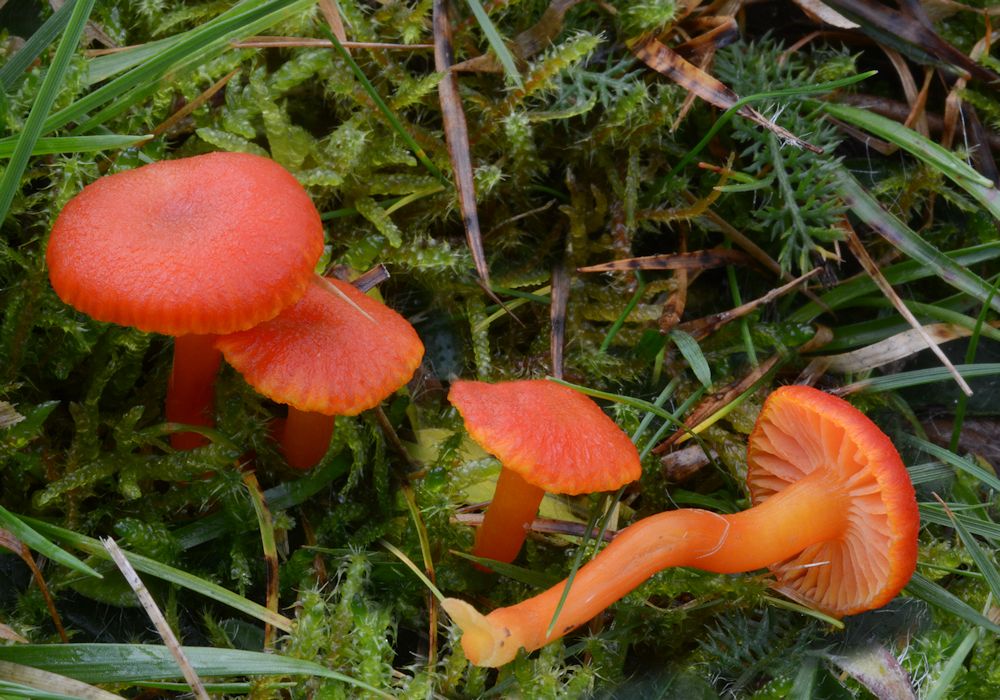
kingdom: Fungi
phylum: Basidiomycota
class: Agaricomycetes
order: Agaricales
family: Hygrophoraceae
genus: Hygrocybe
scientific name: Hygrocybe miniata
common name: mønje-vokshat
